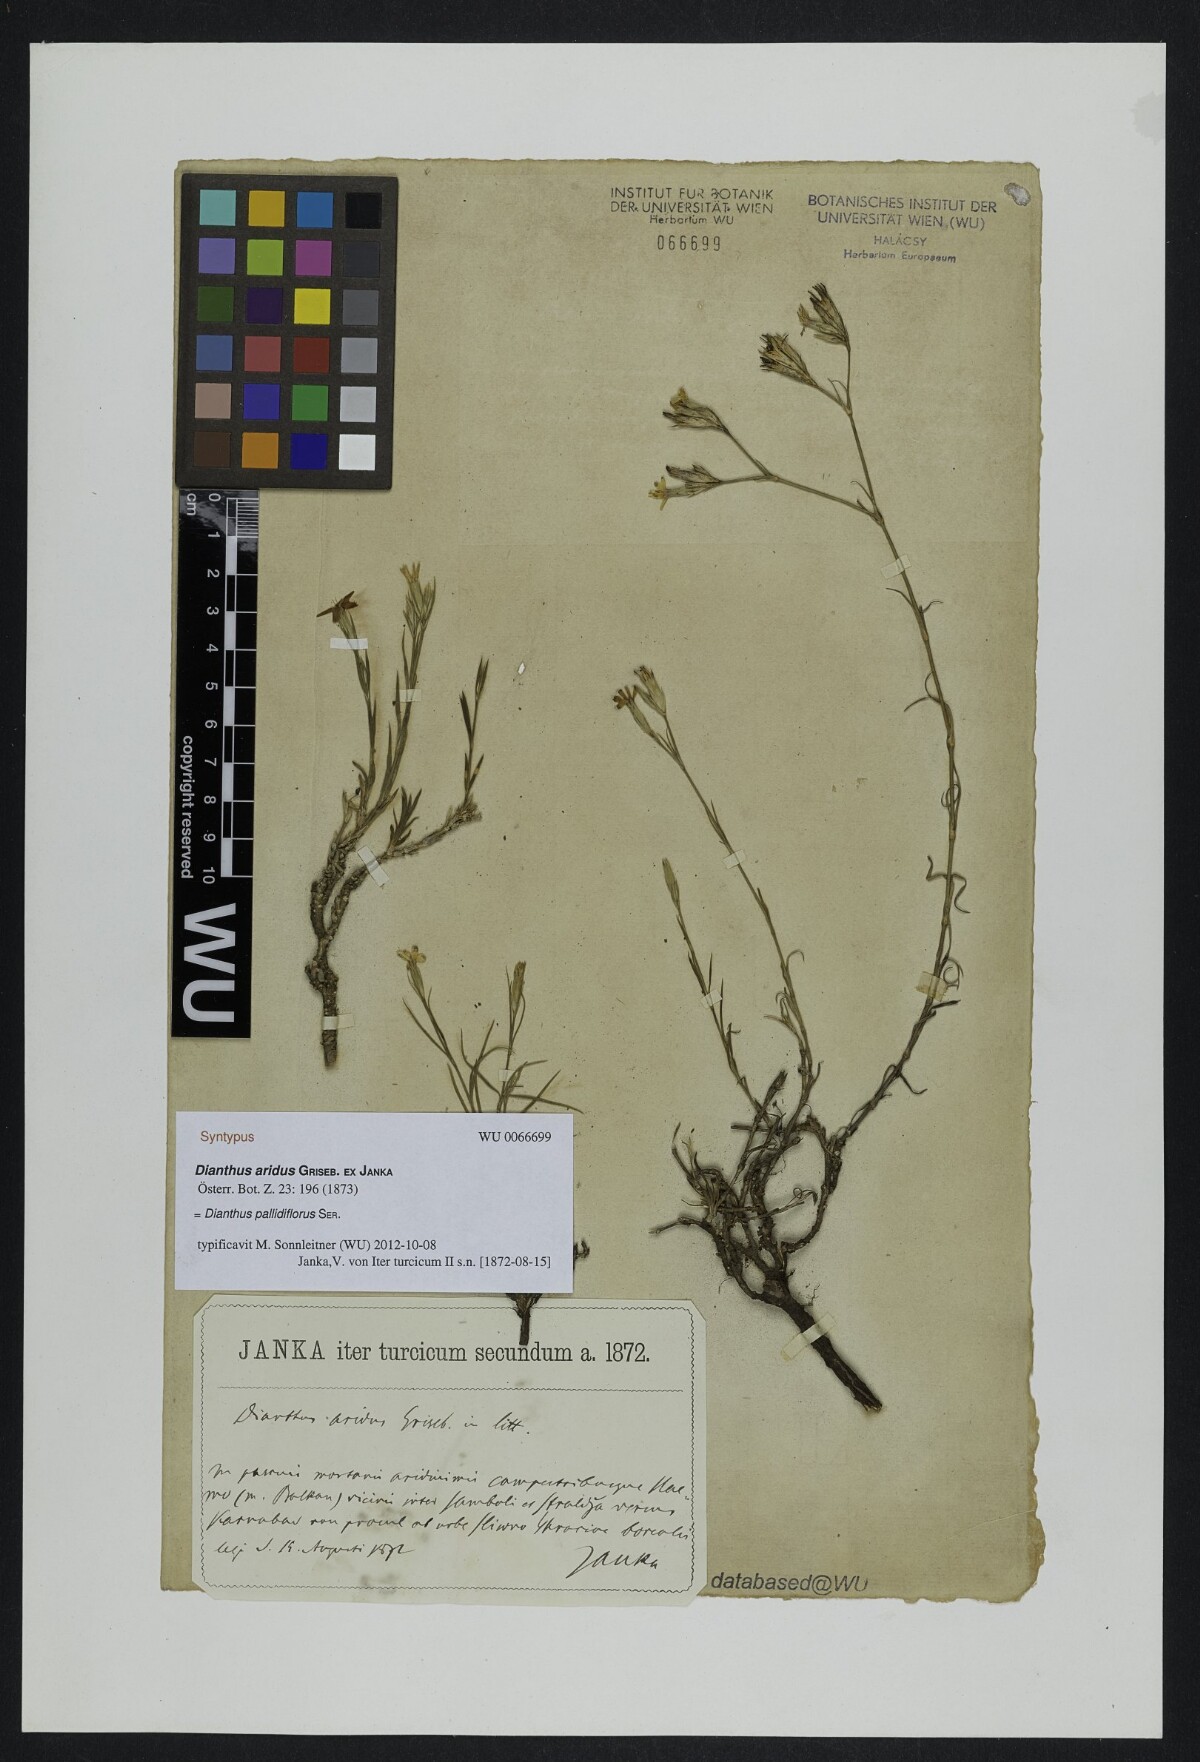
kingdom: Plantae
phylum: Tracheophyta
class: Magnoliopsida
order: Caryophyllales
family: Caryophyllaceae
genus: Dianthus
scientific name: Dianthus pallens
